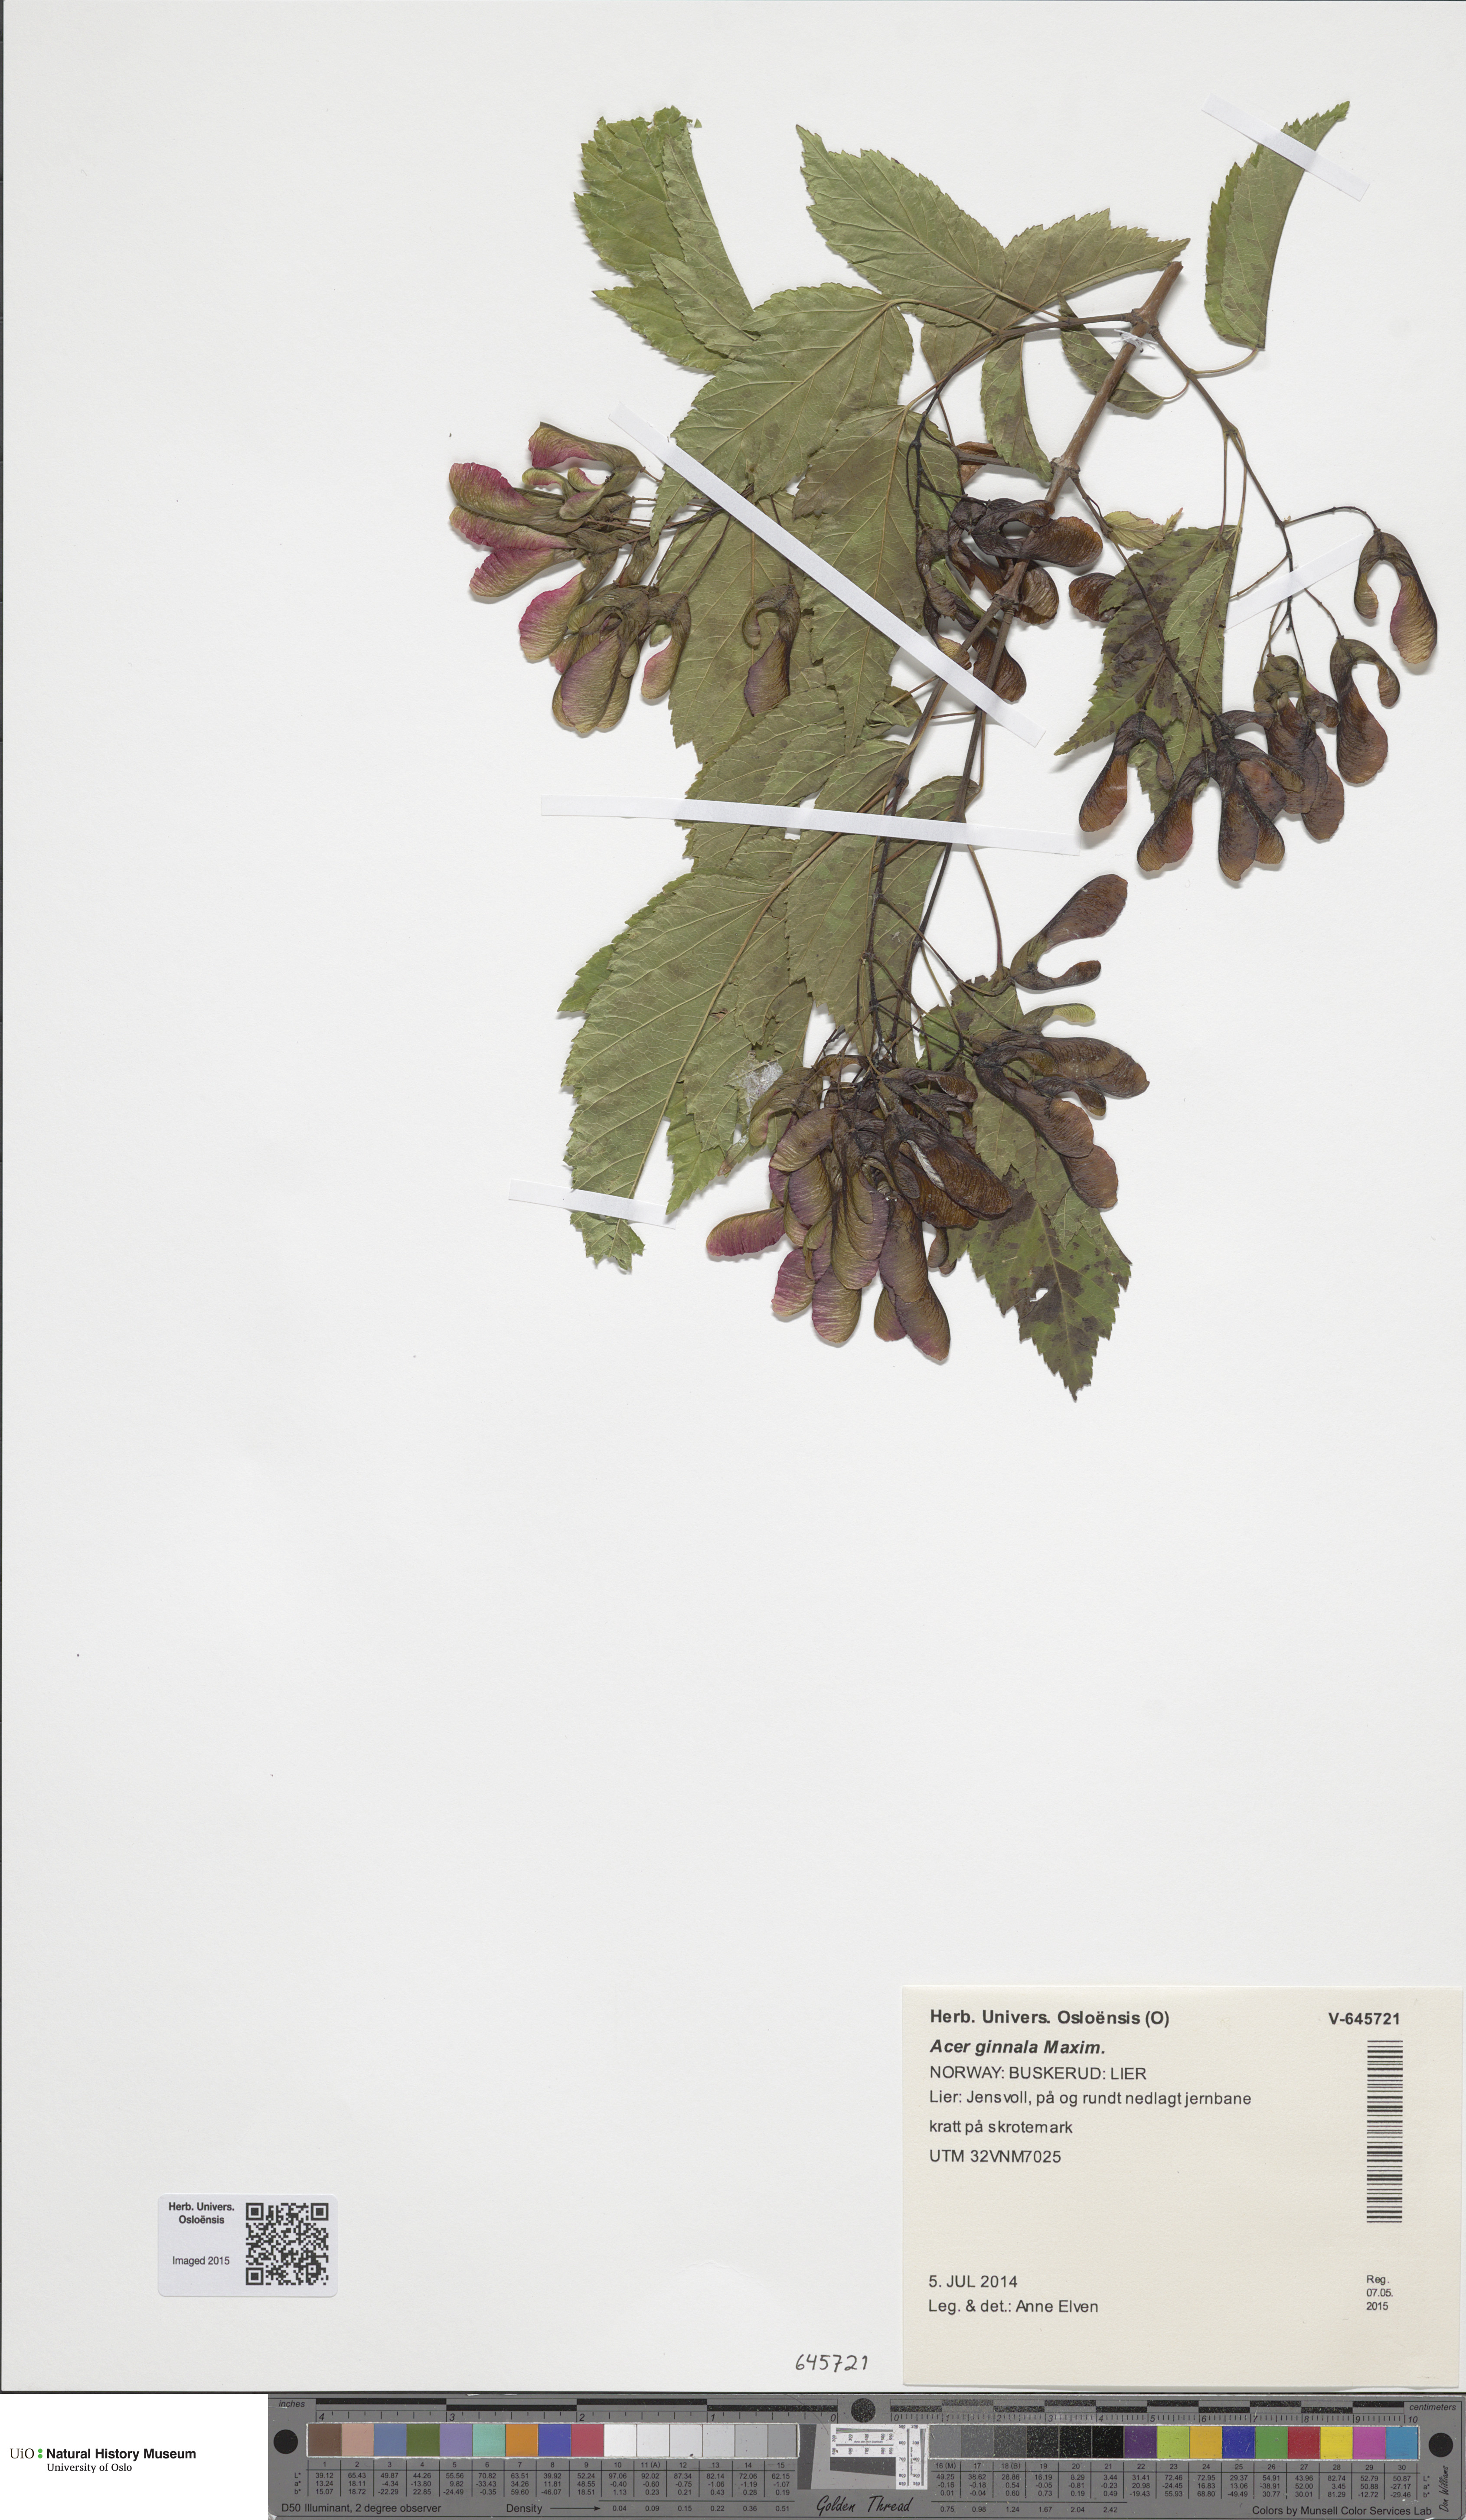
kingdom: Plantae
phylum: Tracheophyta
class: Magnoliopsida
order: Sapindales
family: Sapindaceae
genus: Acer
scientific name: Acer tataricum
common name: Tartar maple
